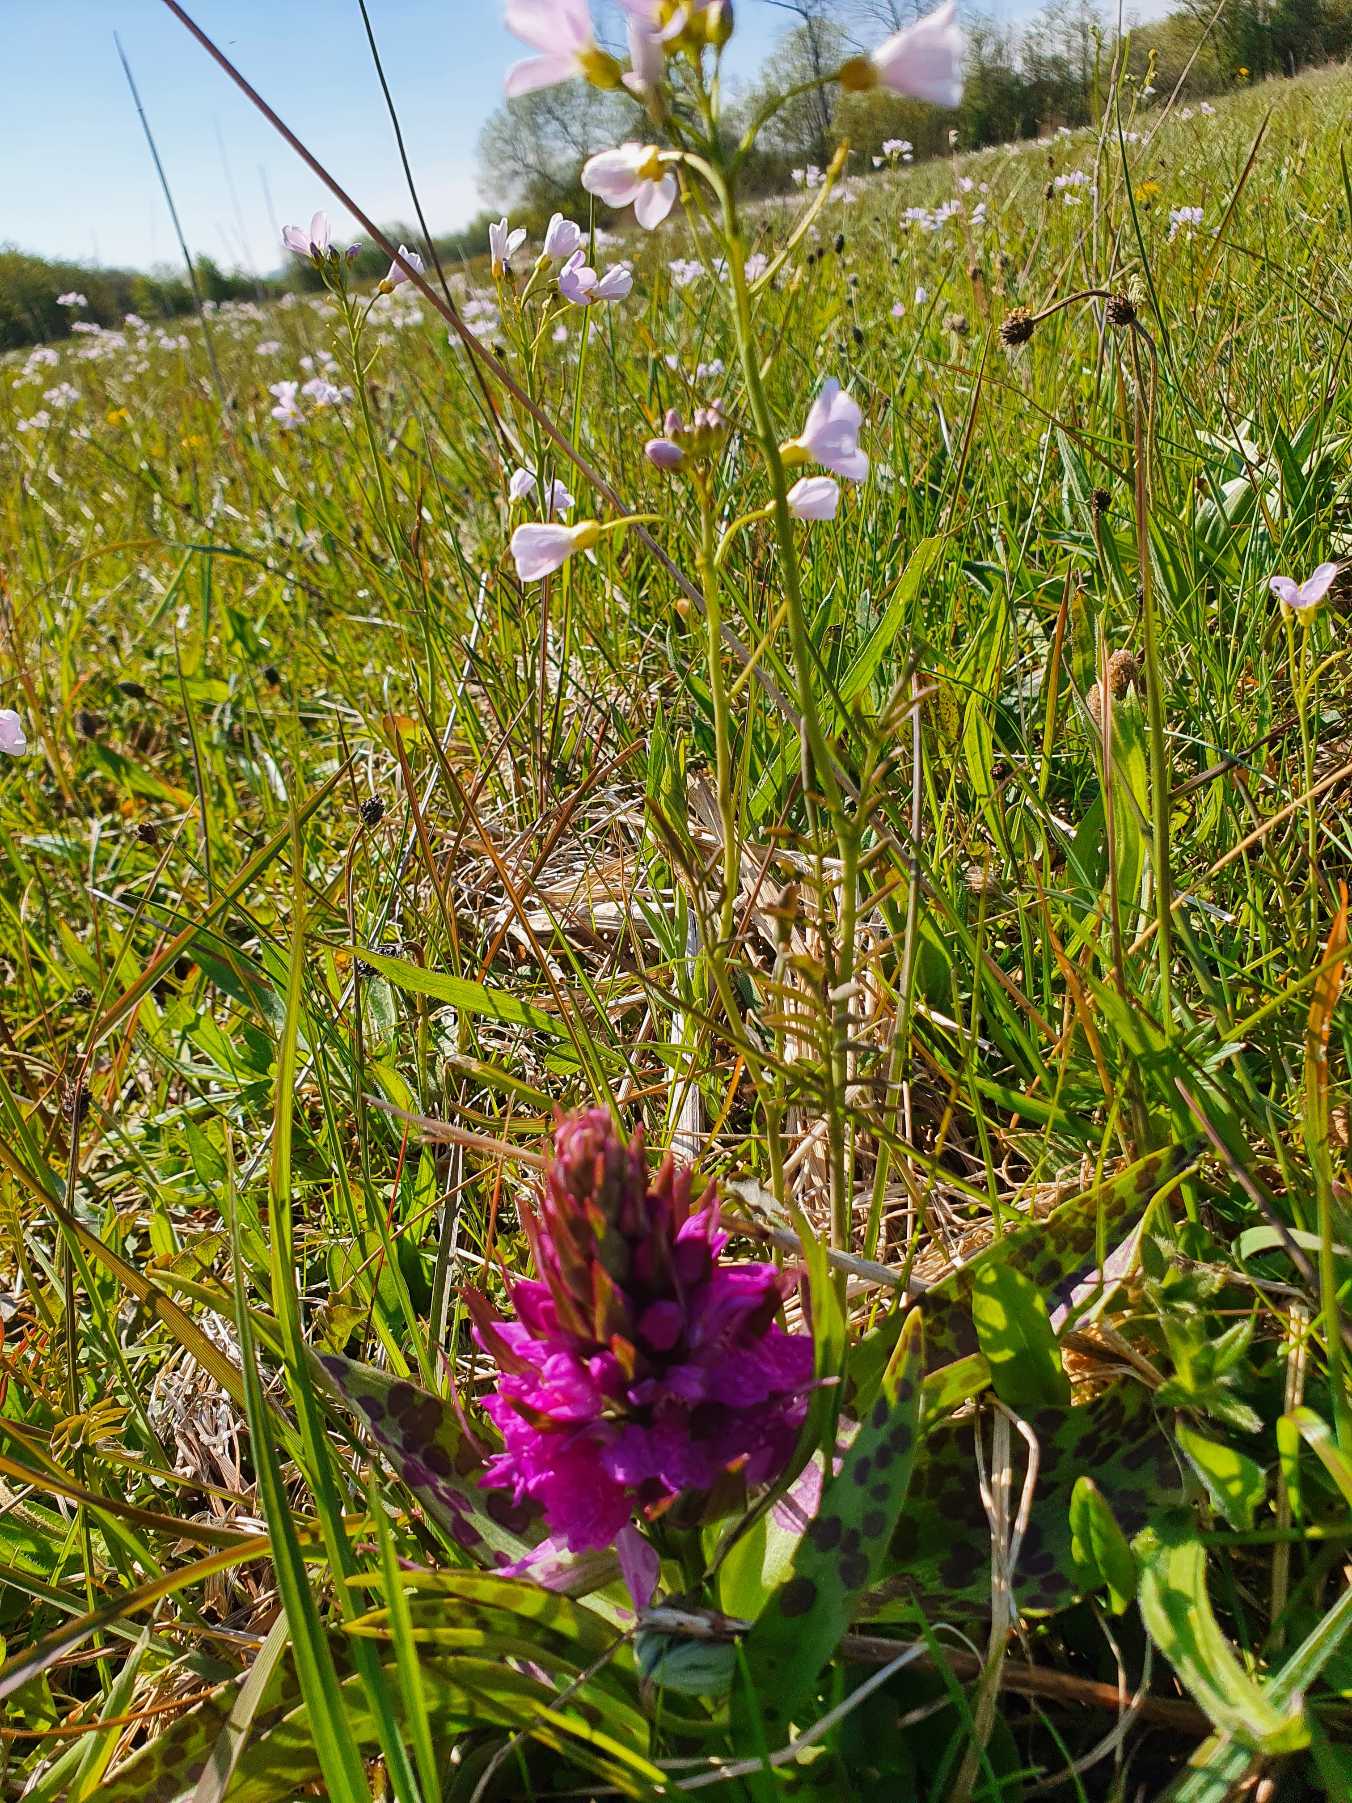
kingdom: Plantae
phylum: Tracheophyta
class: Liliopsida
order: Asparagales
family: Orchidaceae
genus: Dactylorhiza
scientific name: Dactylorhiza majalis
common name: Maj-gøgeurt
